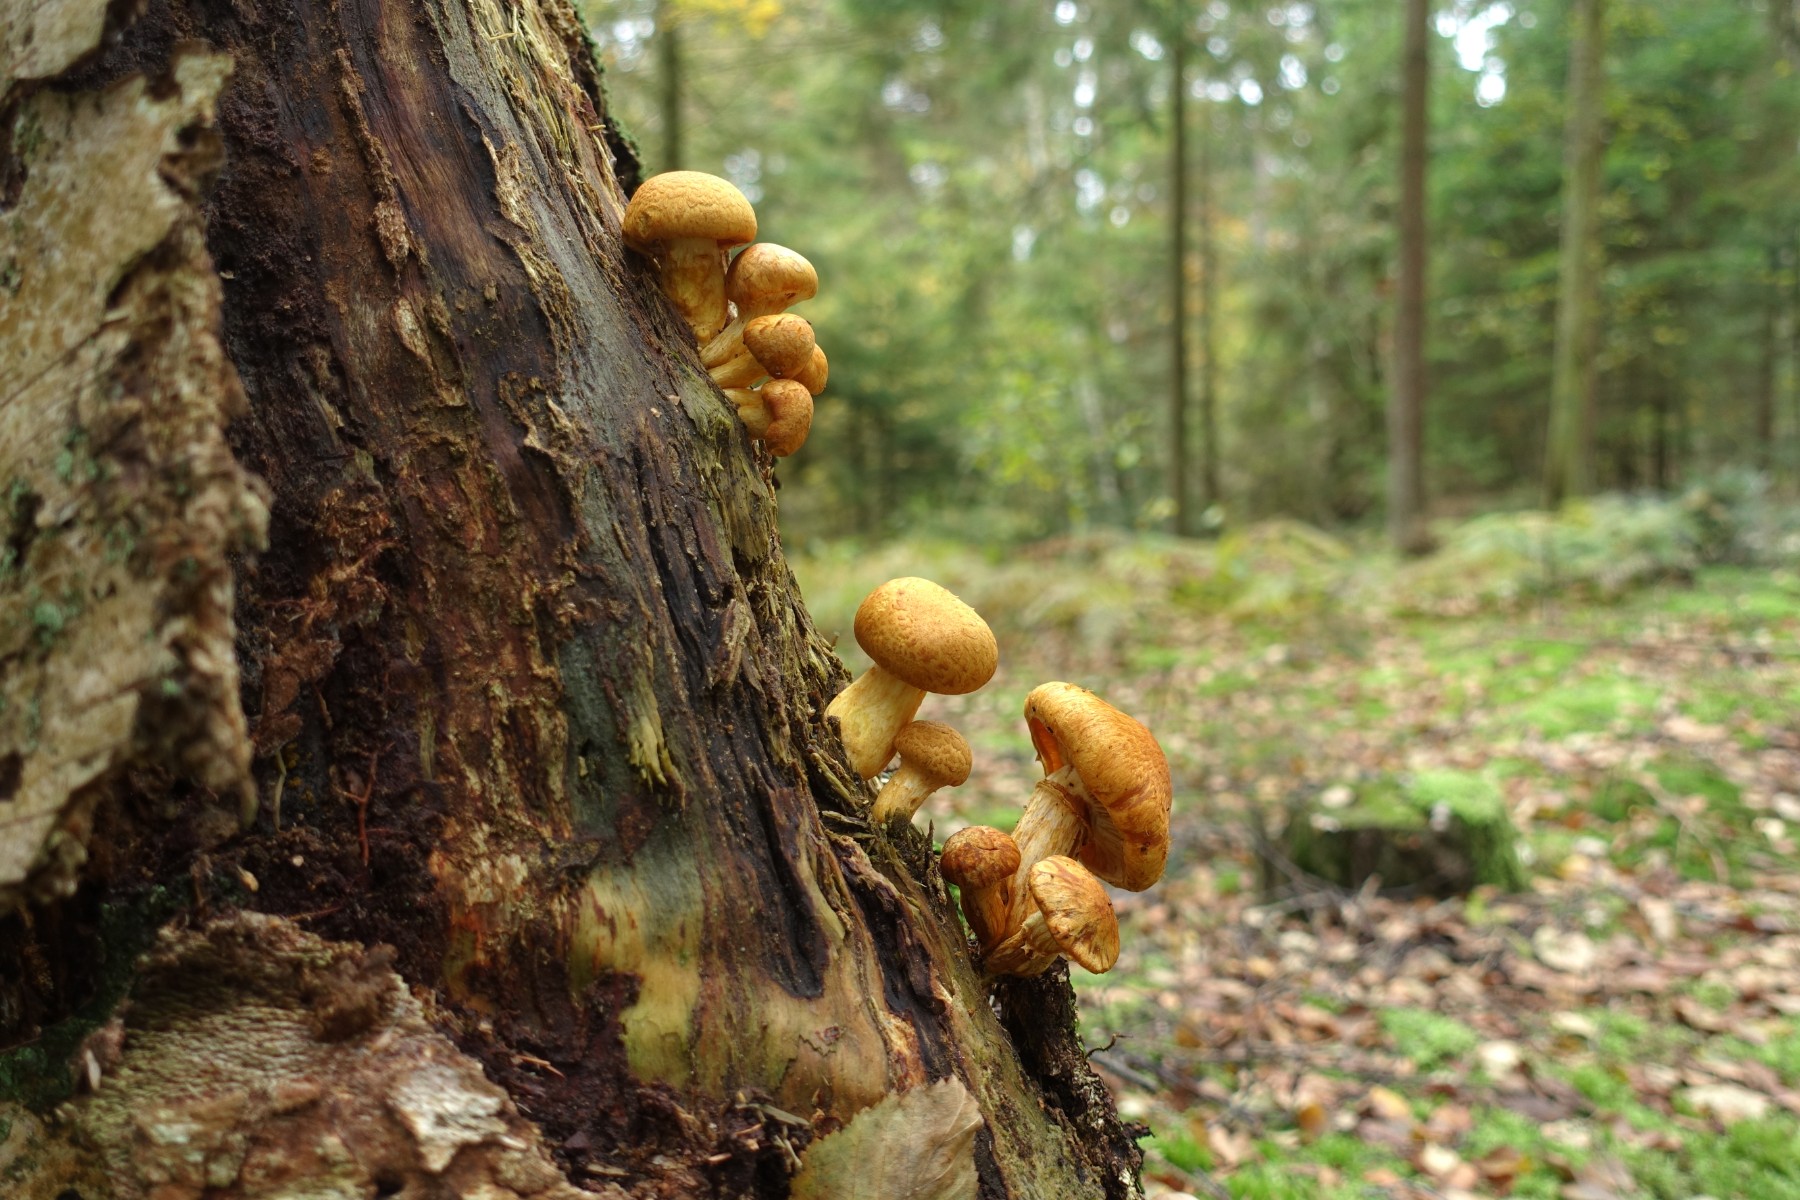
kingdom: Fungi
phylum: Basidiomycota
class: Agaricomycetes
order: Agaricales
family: Hymenogastraceae
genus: Gymnopilus
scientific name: Gymnopilus spectabilis
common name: fibret flammehat
